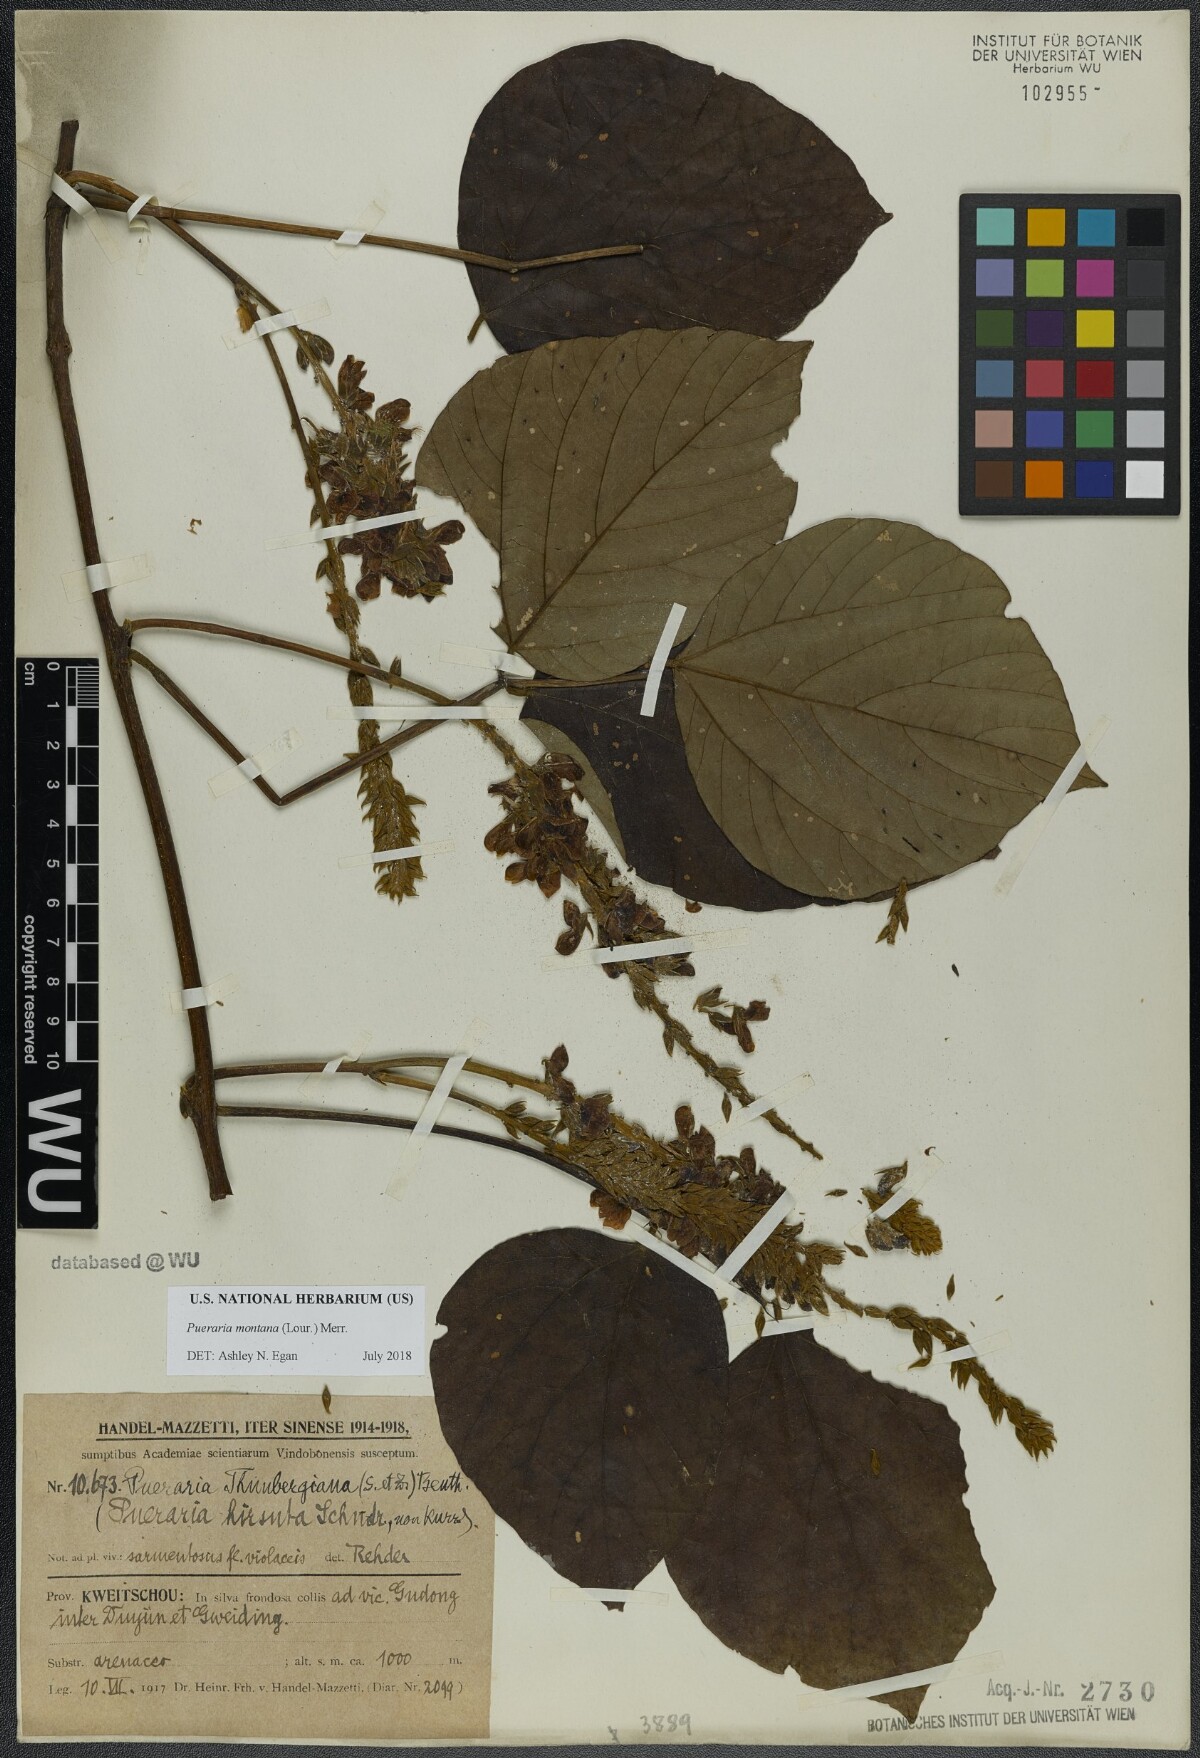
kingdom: Plantae
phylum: Tracheophyta
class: Magnoliopsida
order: Fabales
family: Fabaceae
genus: Pueraria
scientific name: Pueraria montana
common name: Kudzu
